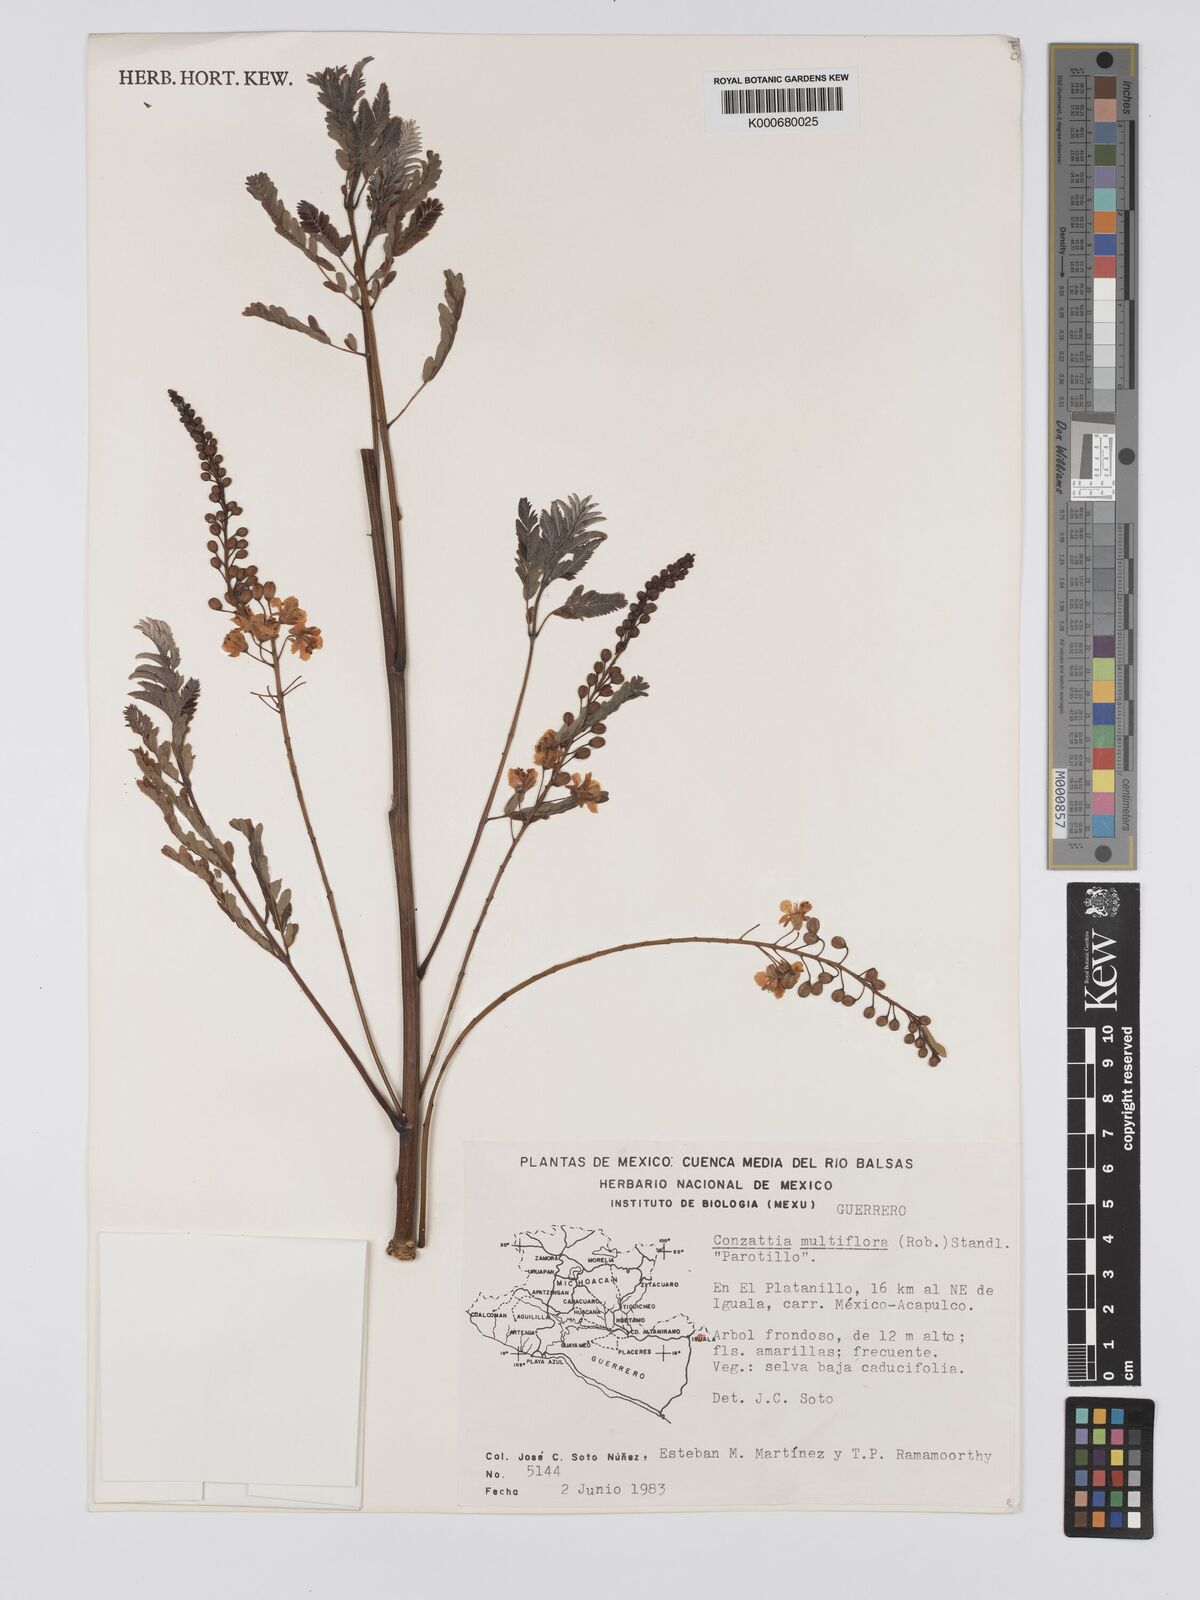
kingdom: Plantae
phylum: Tracheophyta
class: Magnoliopsida
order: Fabales
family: Fabaceae
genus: Conzattia
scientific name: Conzattia multiflora
